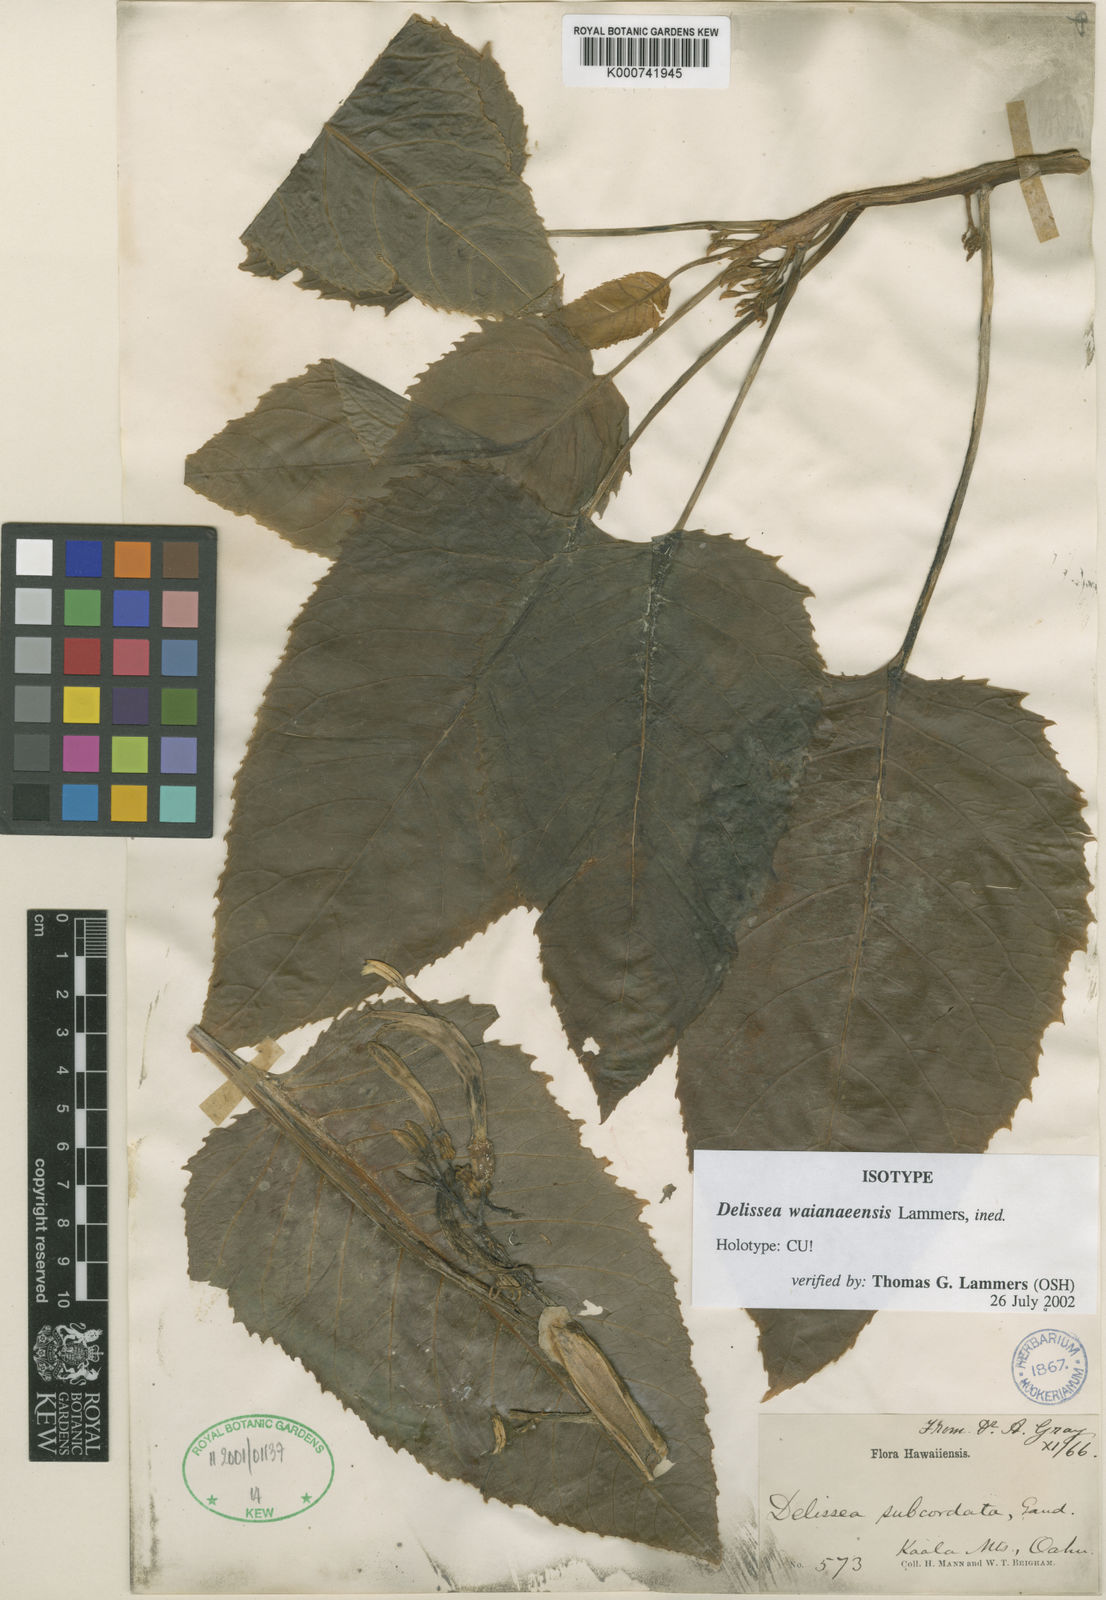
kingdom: Plantae
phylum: Tracheophyta
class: Magnoliopsida
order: Asterales
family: Campanulaceae
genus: Delissea
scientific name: Delissea waianaeensis
